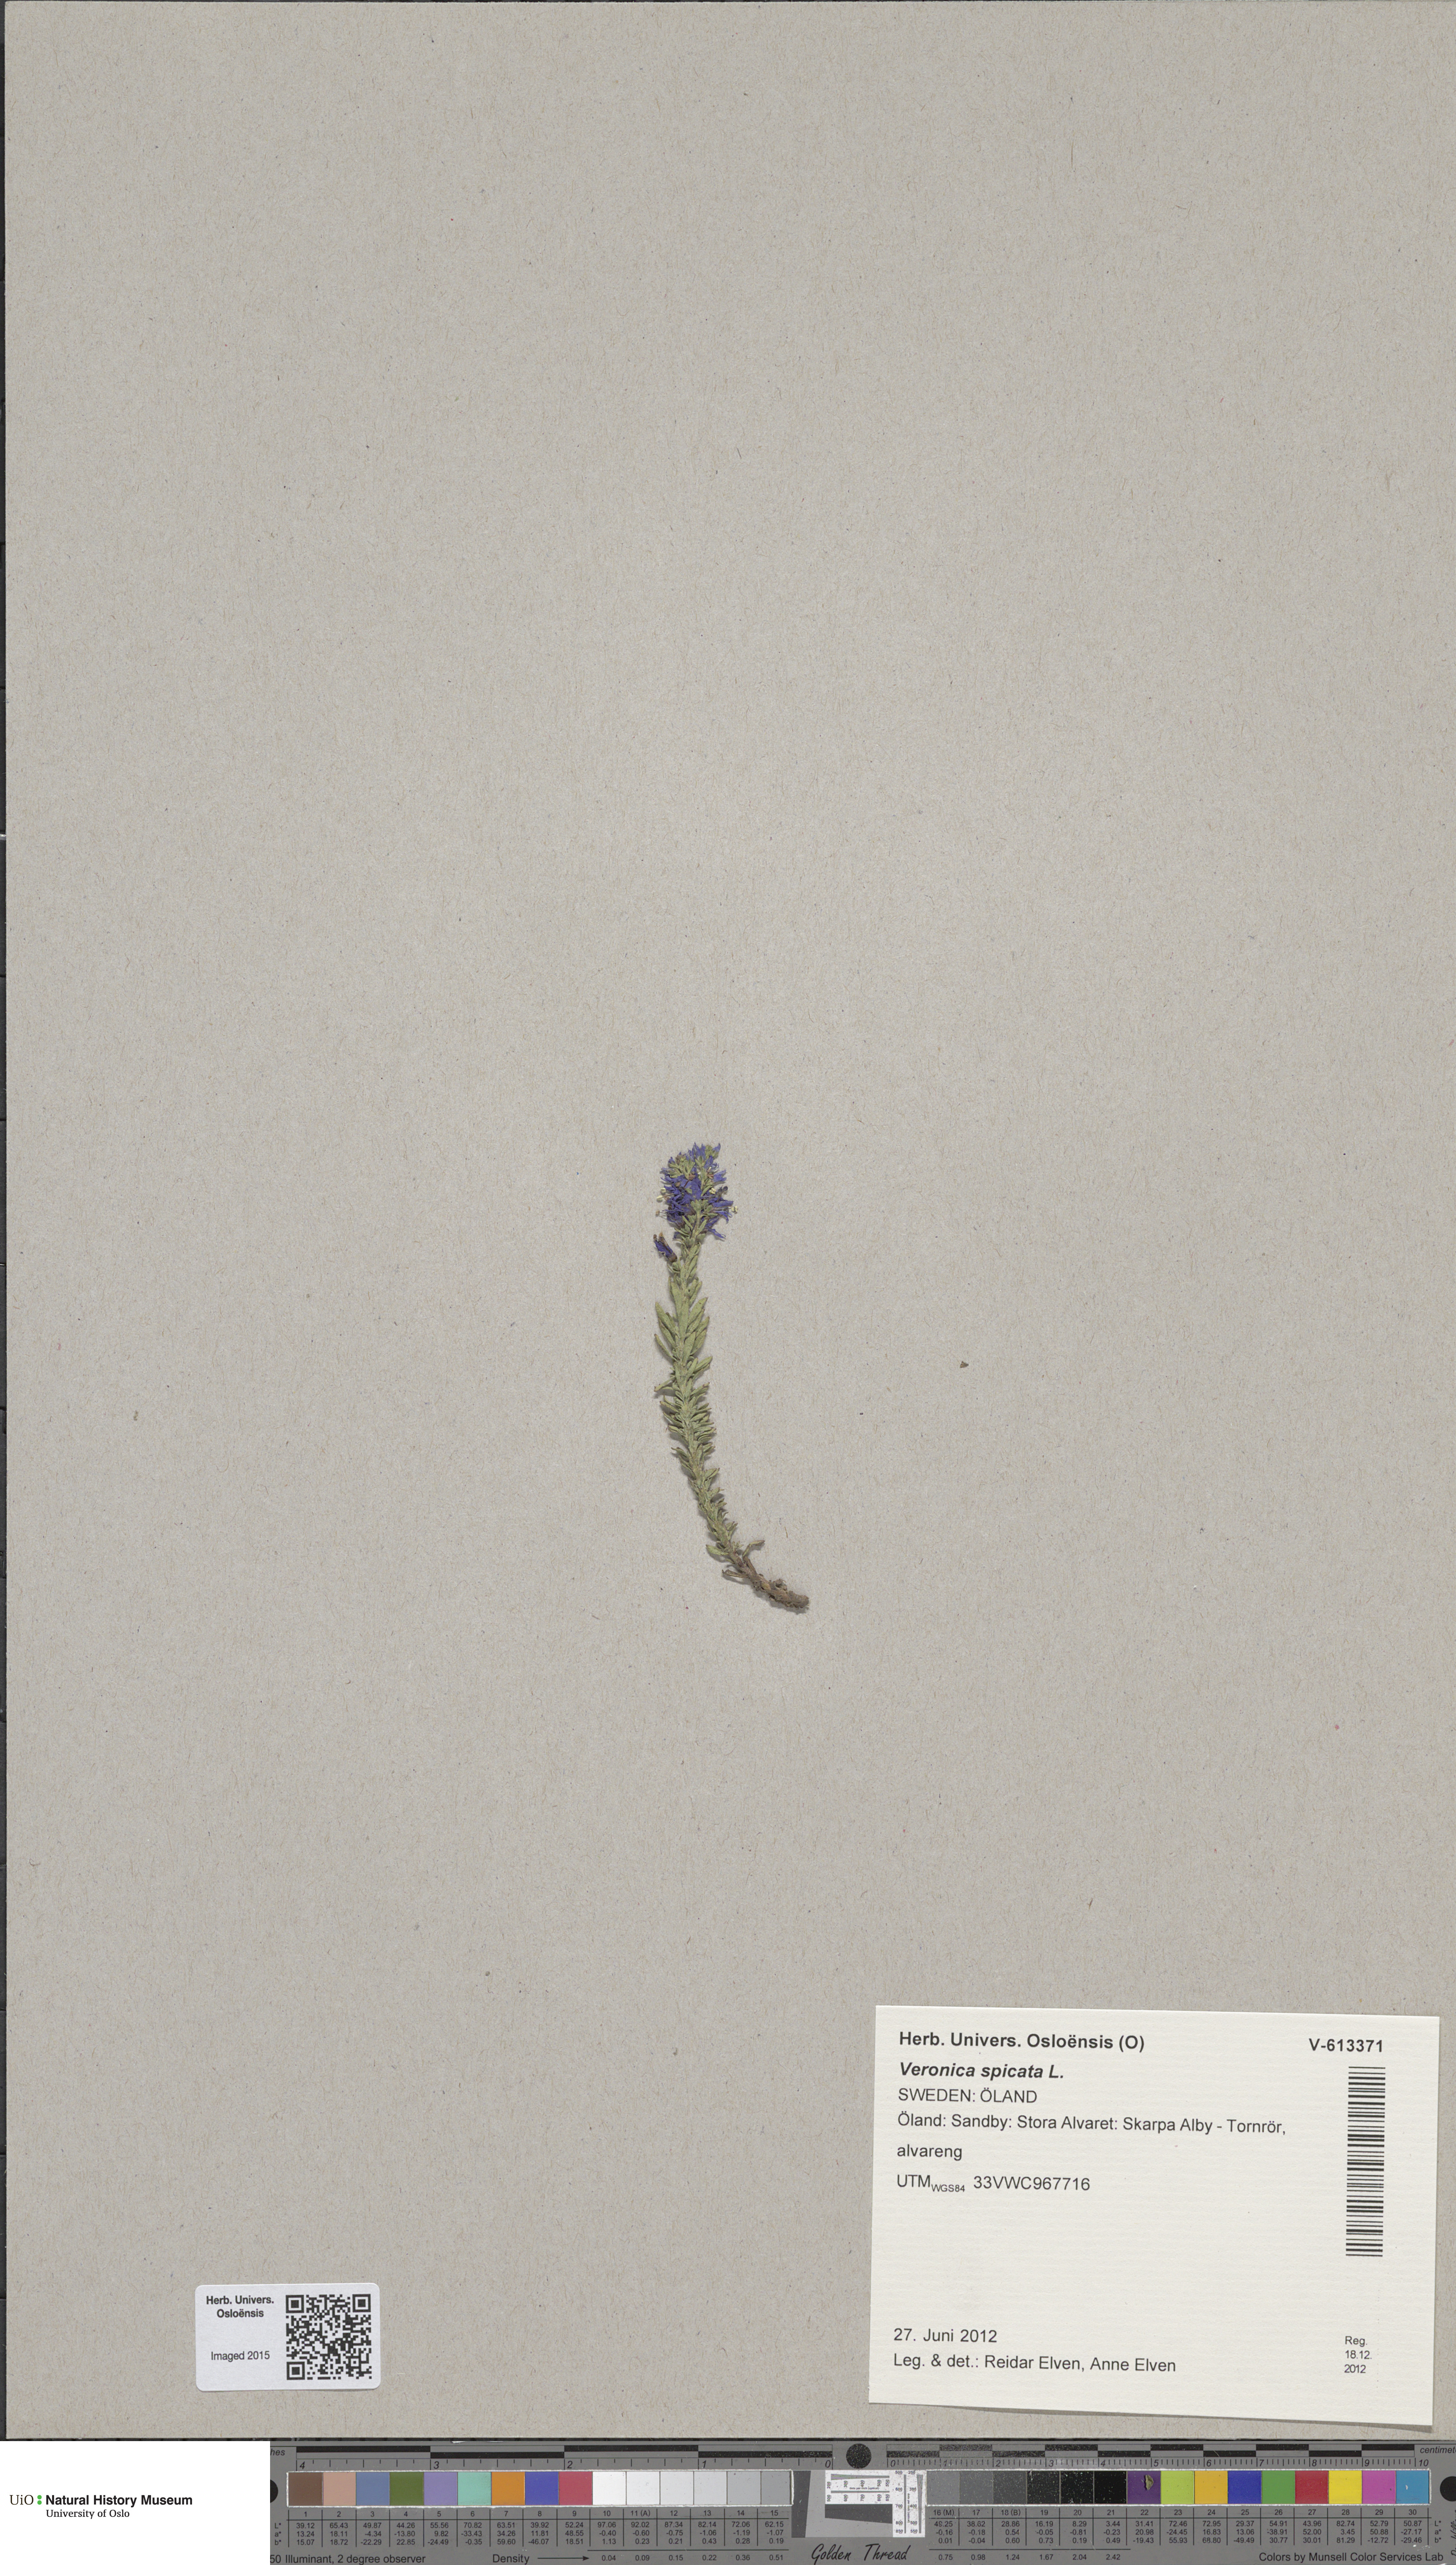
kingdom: Plantae
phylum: Tracheophyta
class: Magnoliopsida
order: Lamiales
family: Plantaginaceae
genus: Veronica
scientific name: Veronica spicata
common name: Spiked speedwell
